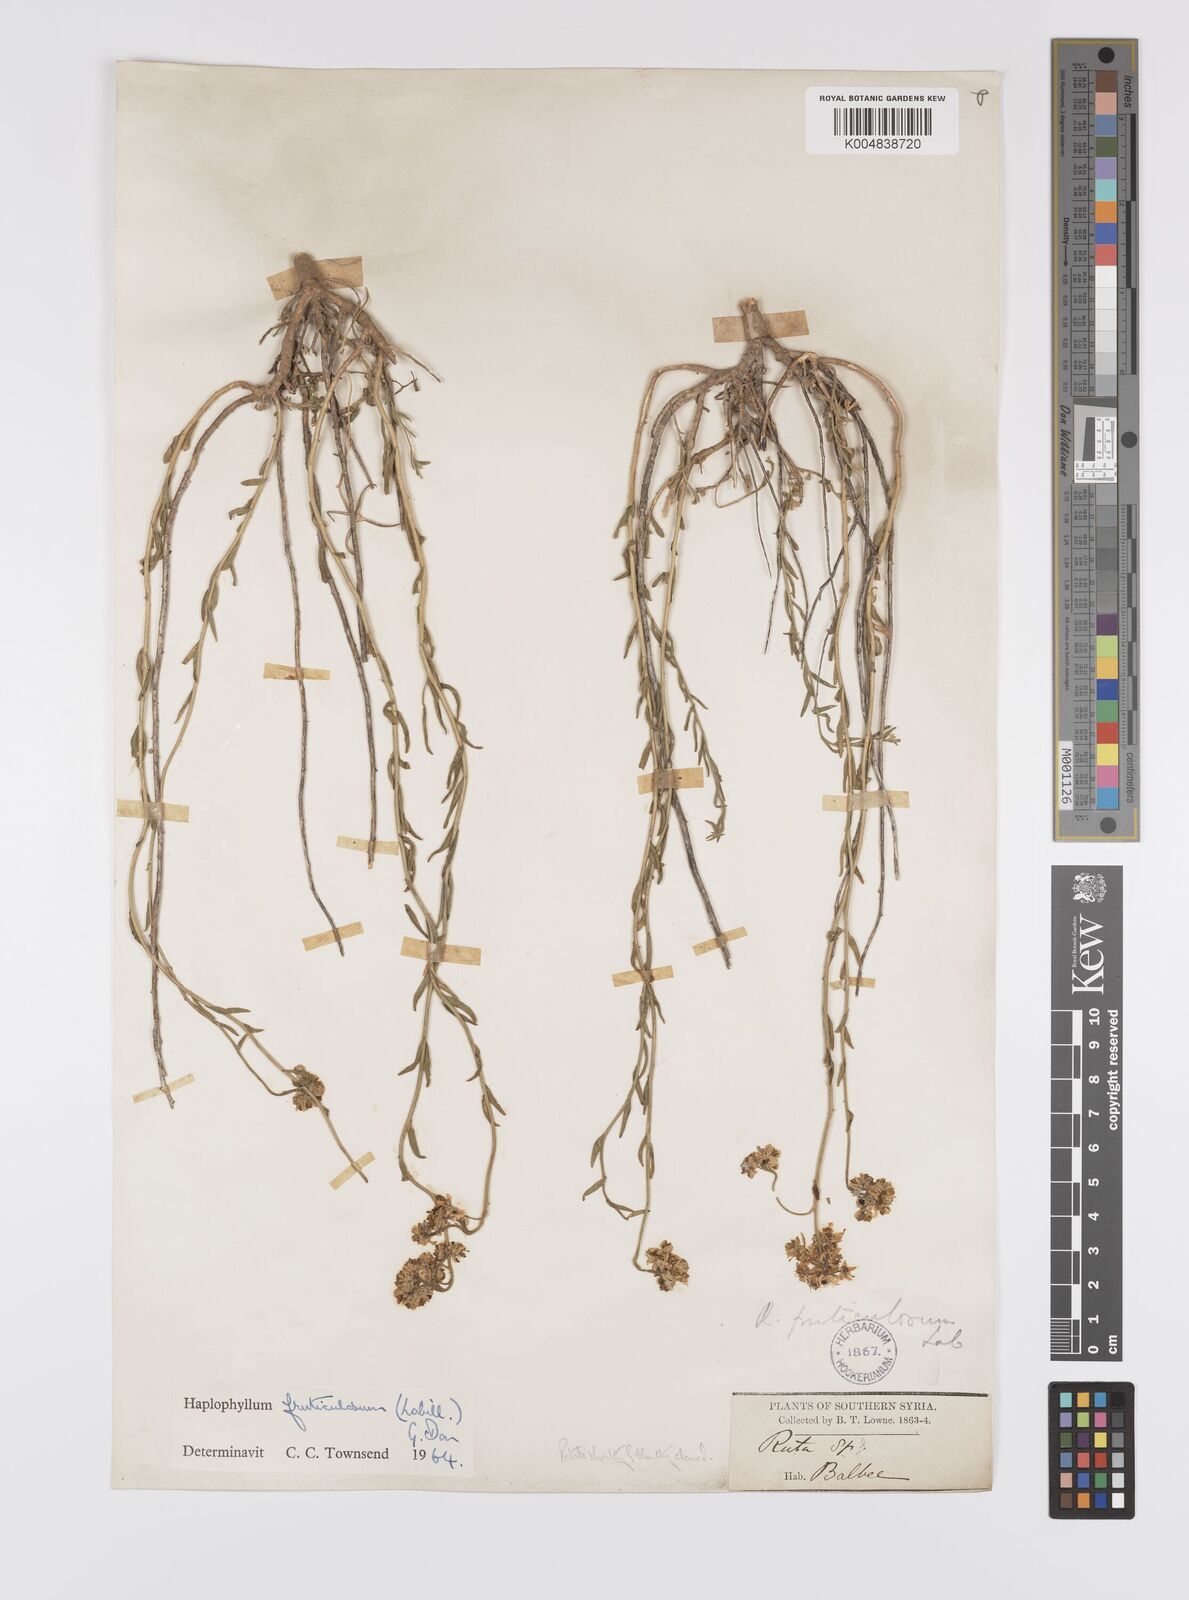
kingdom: Plantae
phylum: Tracheophyta
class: Magnoliopsida
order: Sapindales
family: Rutaceae
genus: Haplophyllum
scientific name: Haplophyllum fruticulosum
